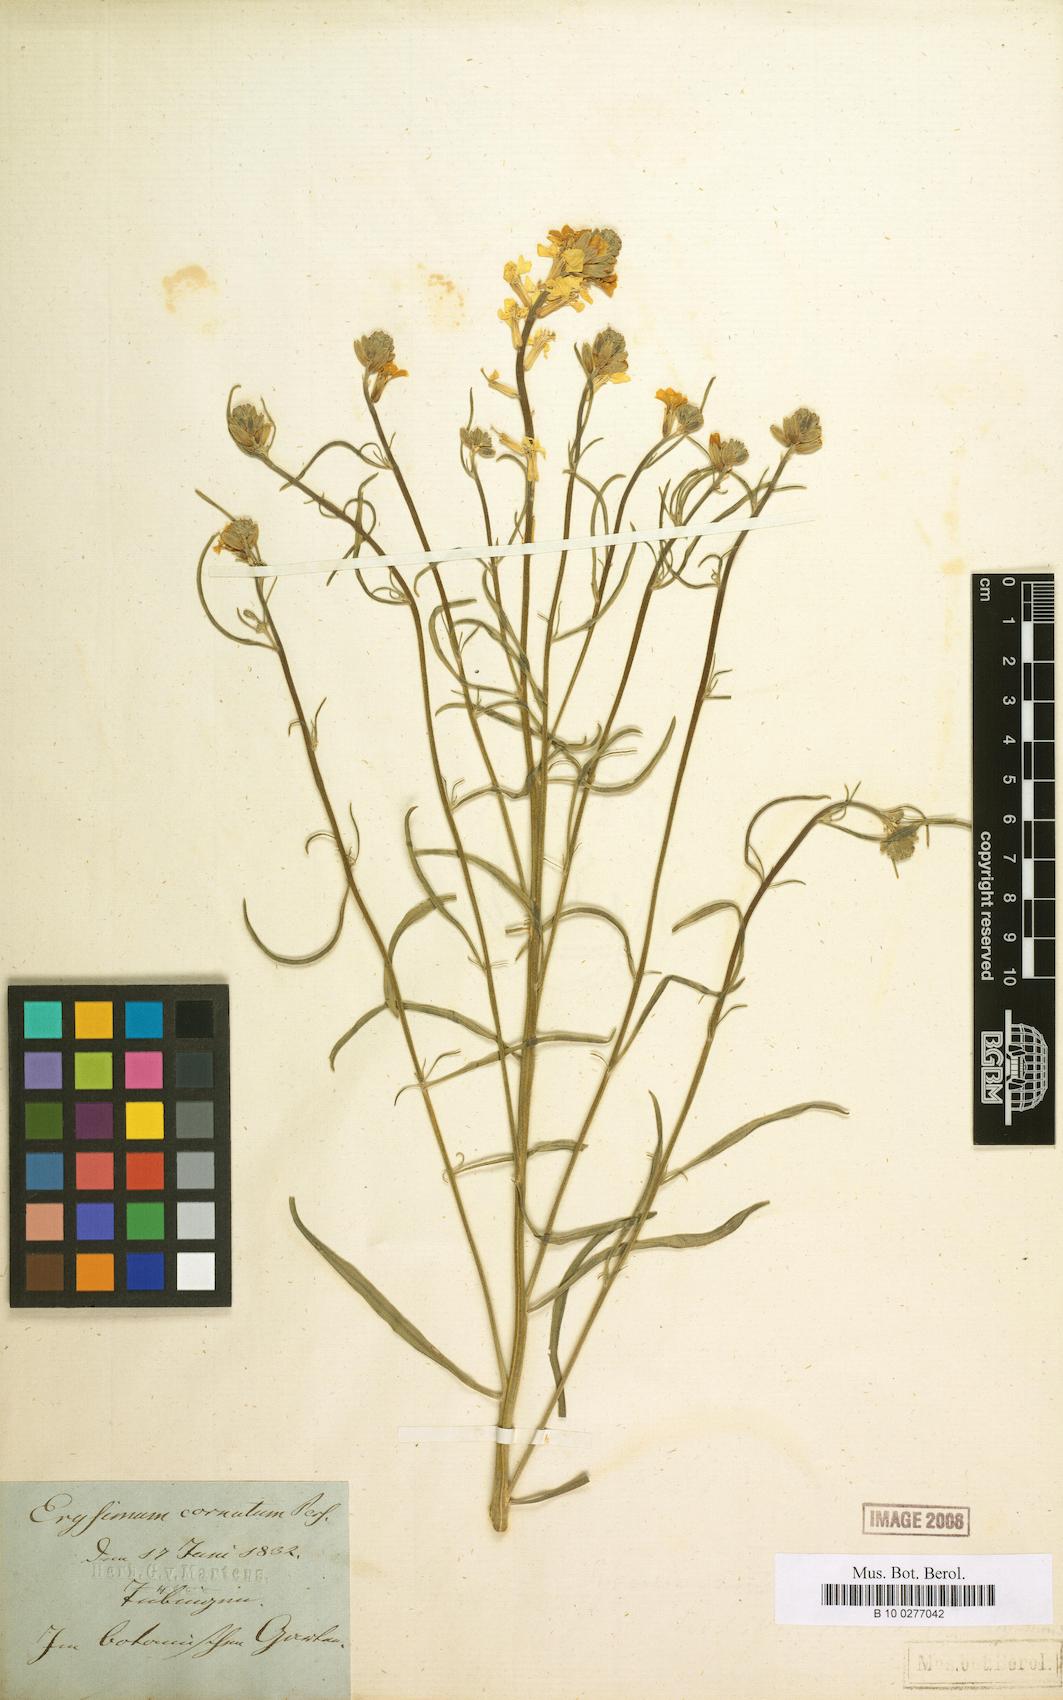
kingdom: Plantae
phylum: Tracheophyta
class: Magnoliopsida
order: Brassicales
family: Brassicaceae
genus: Erysimum
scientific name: Erysimum montanum
